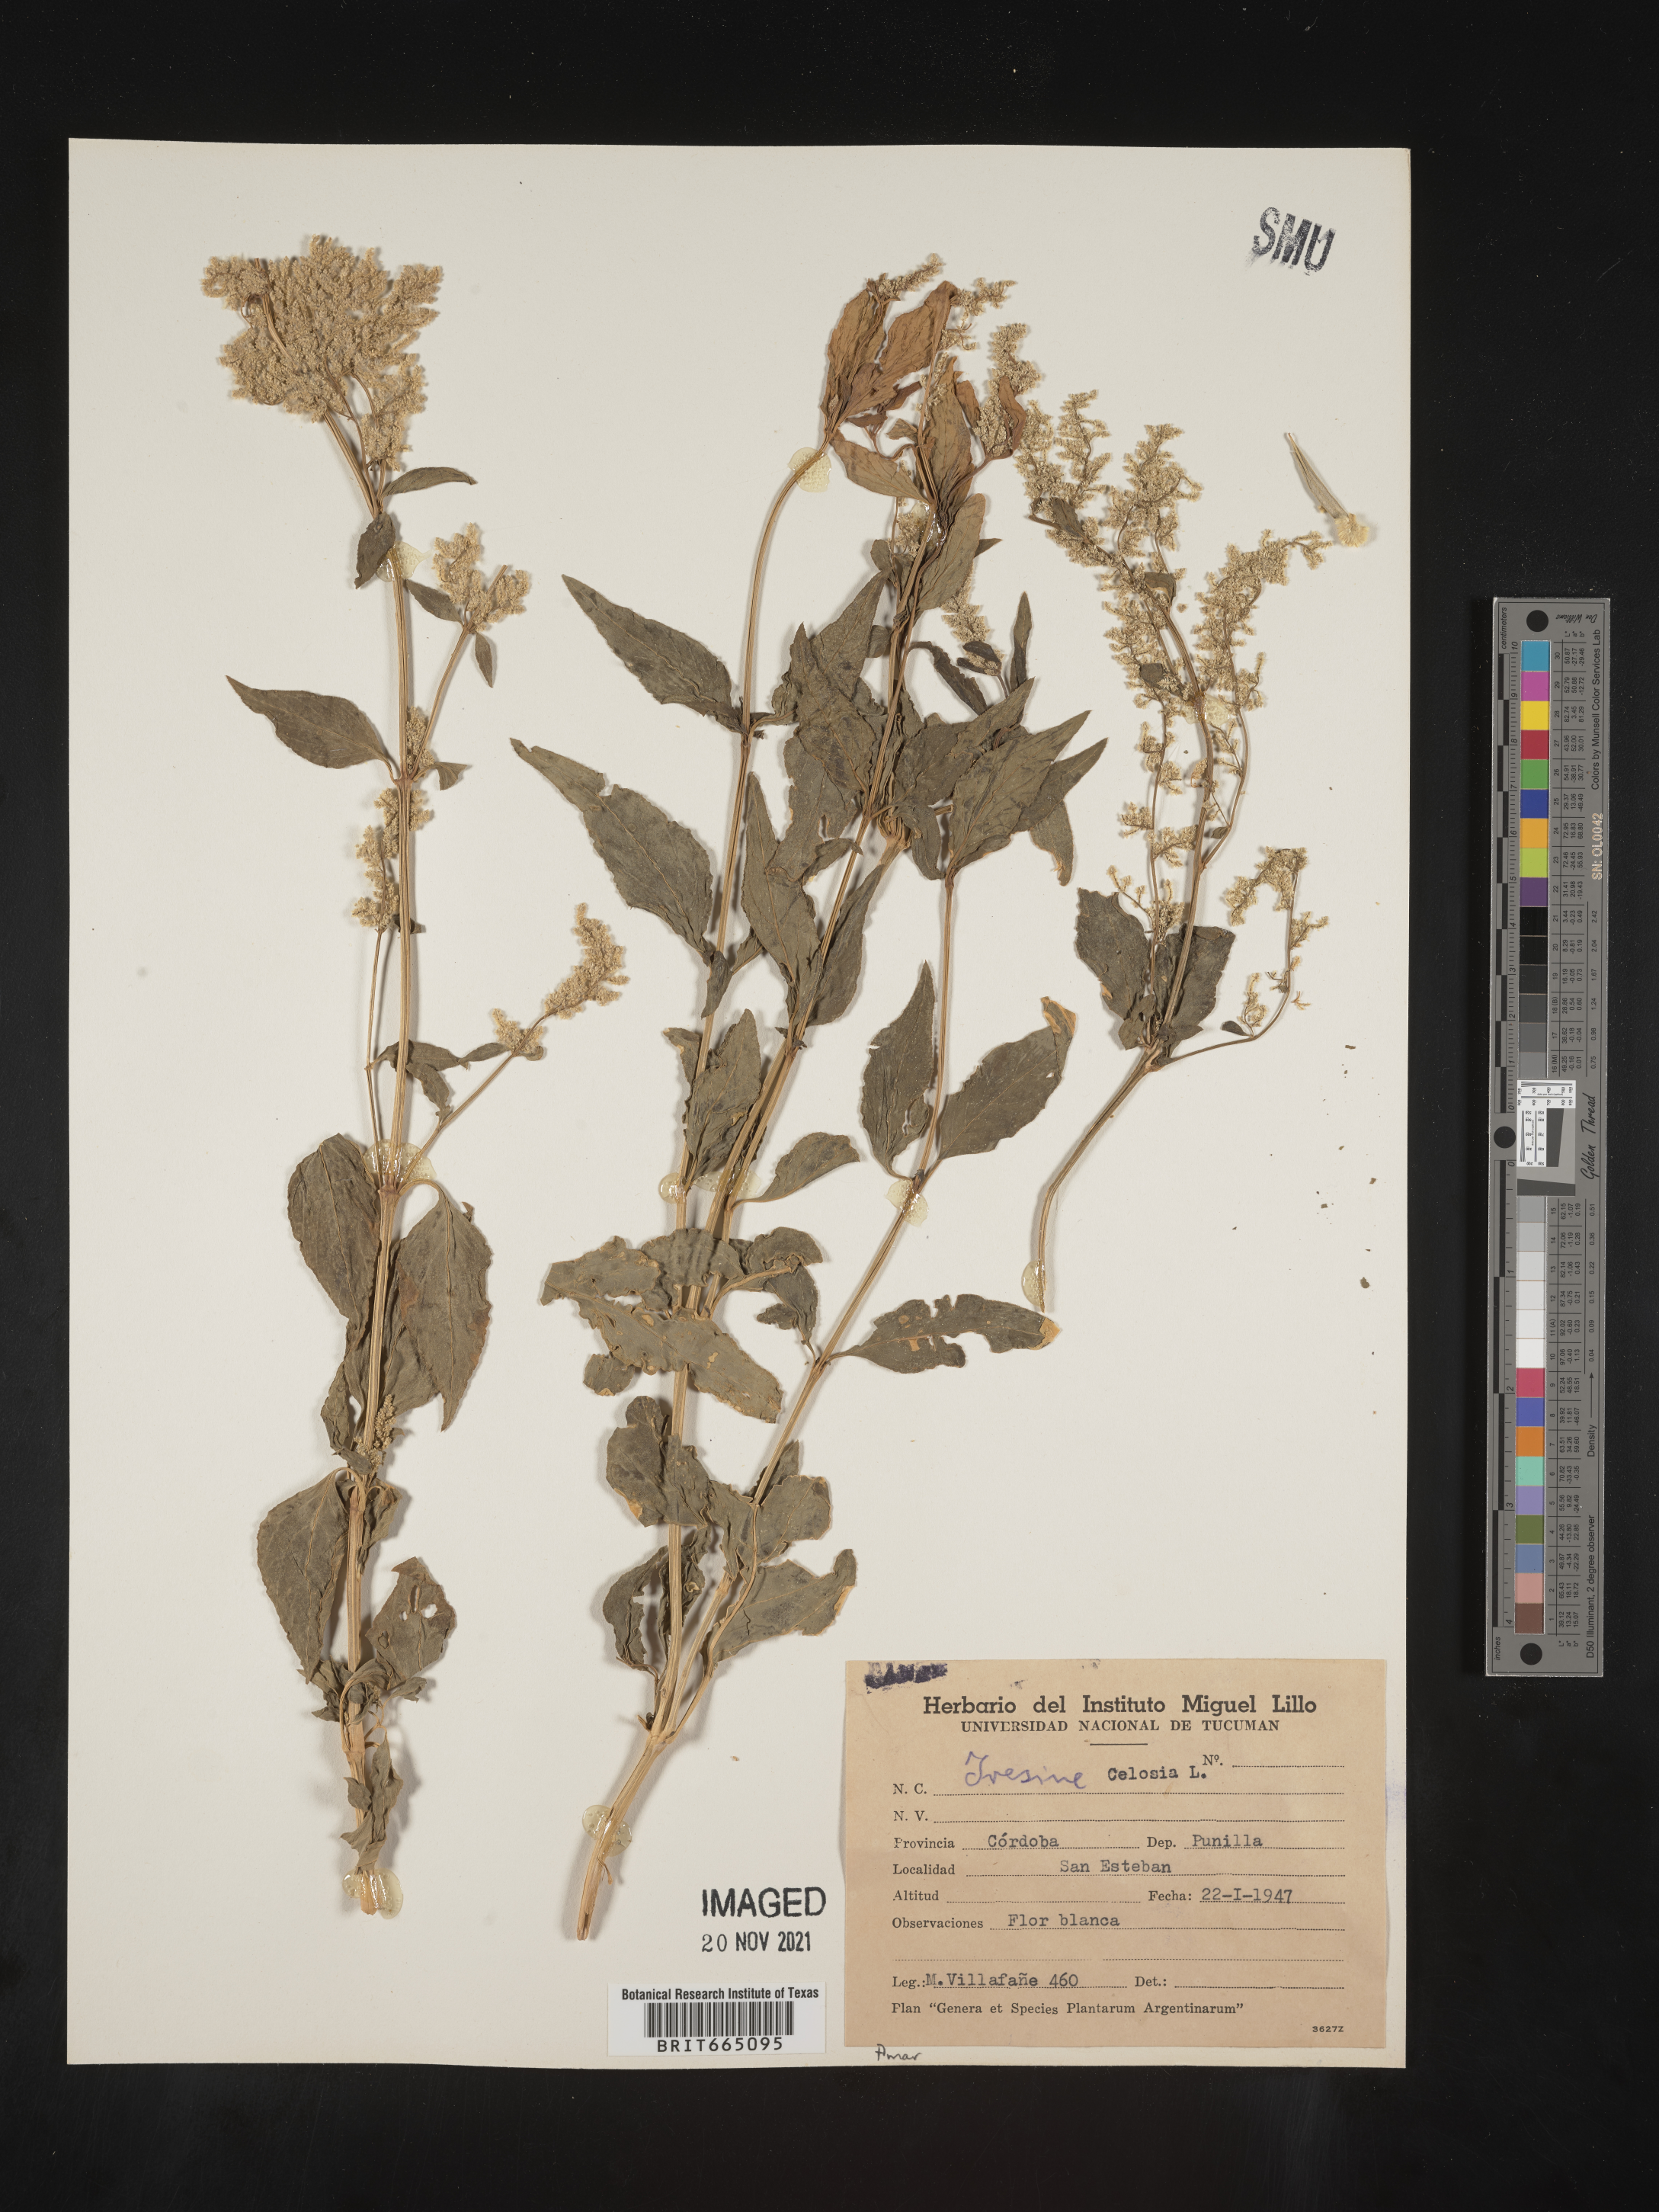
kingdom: Plantae
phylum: Tracheophyta
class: Magnoliopsida
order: Caryophyllales
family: Amaranthaceae
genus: Iresine
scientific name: Iresine
